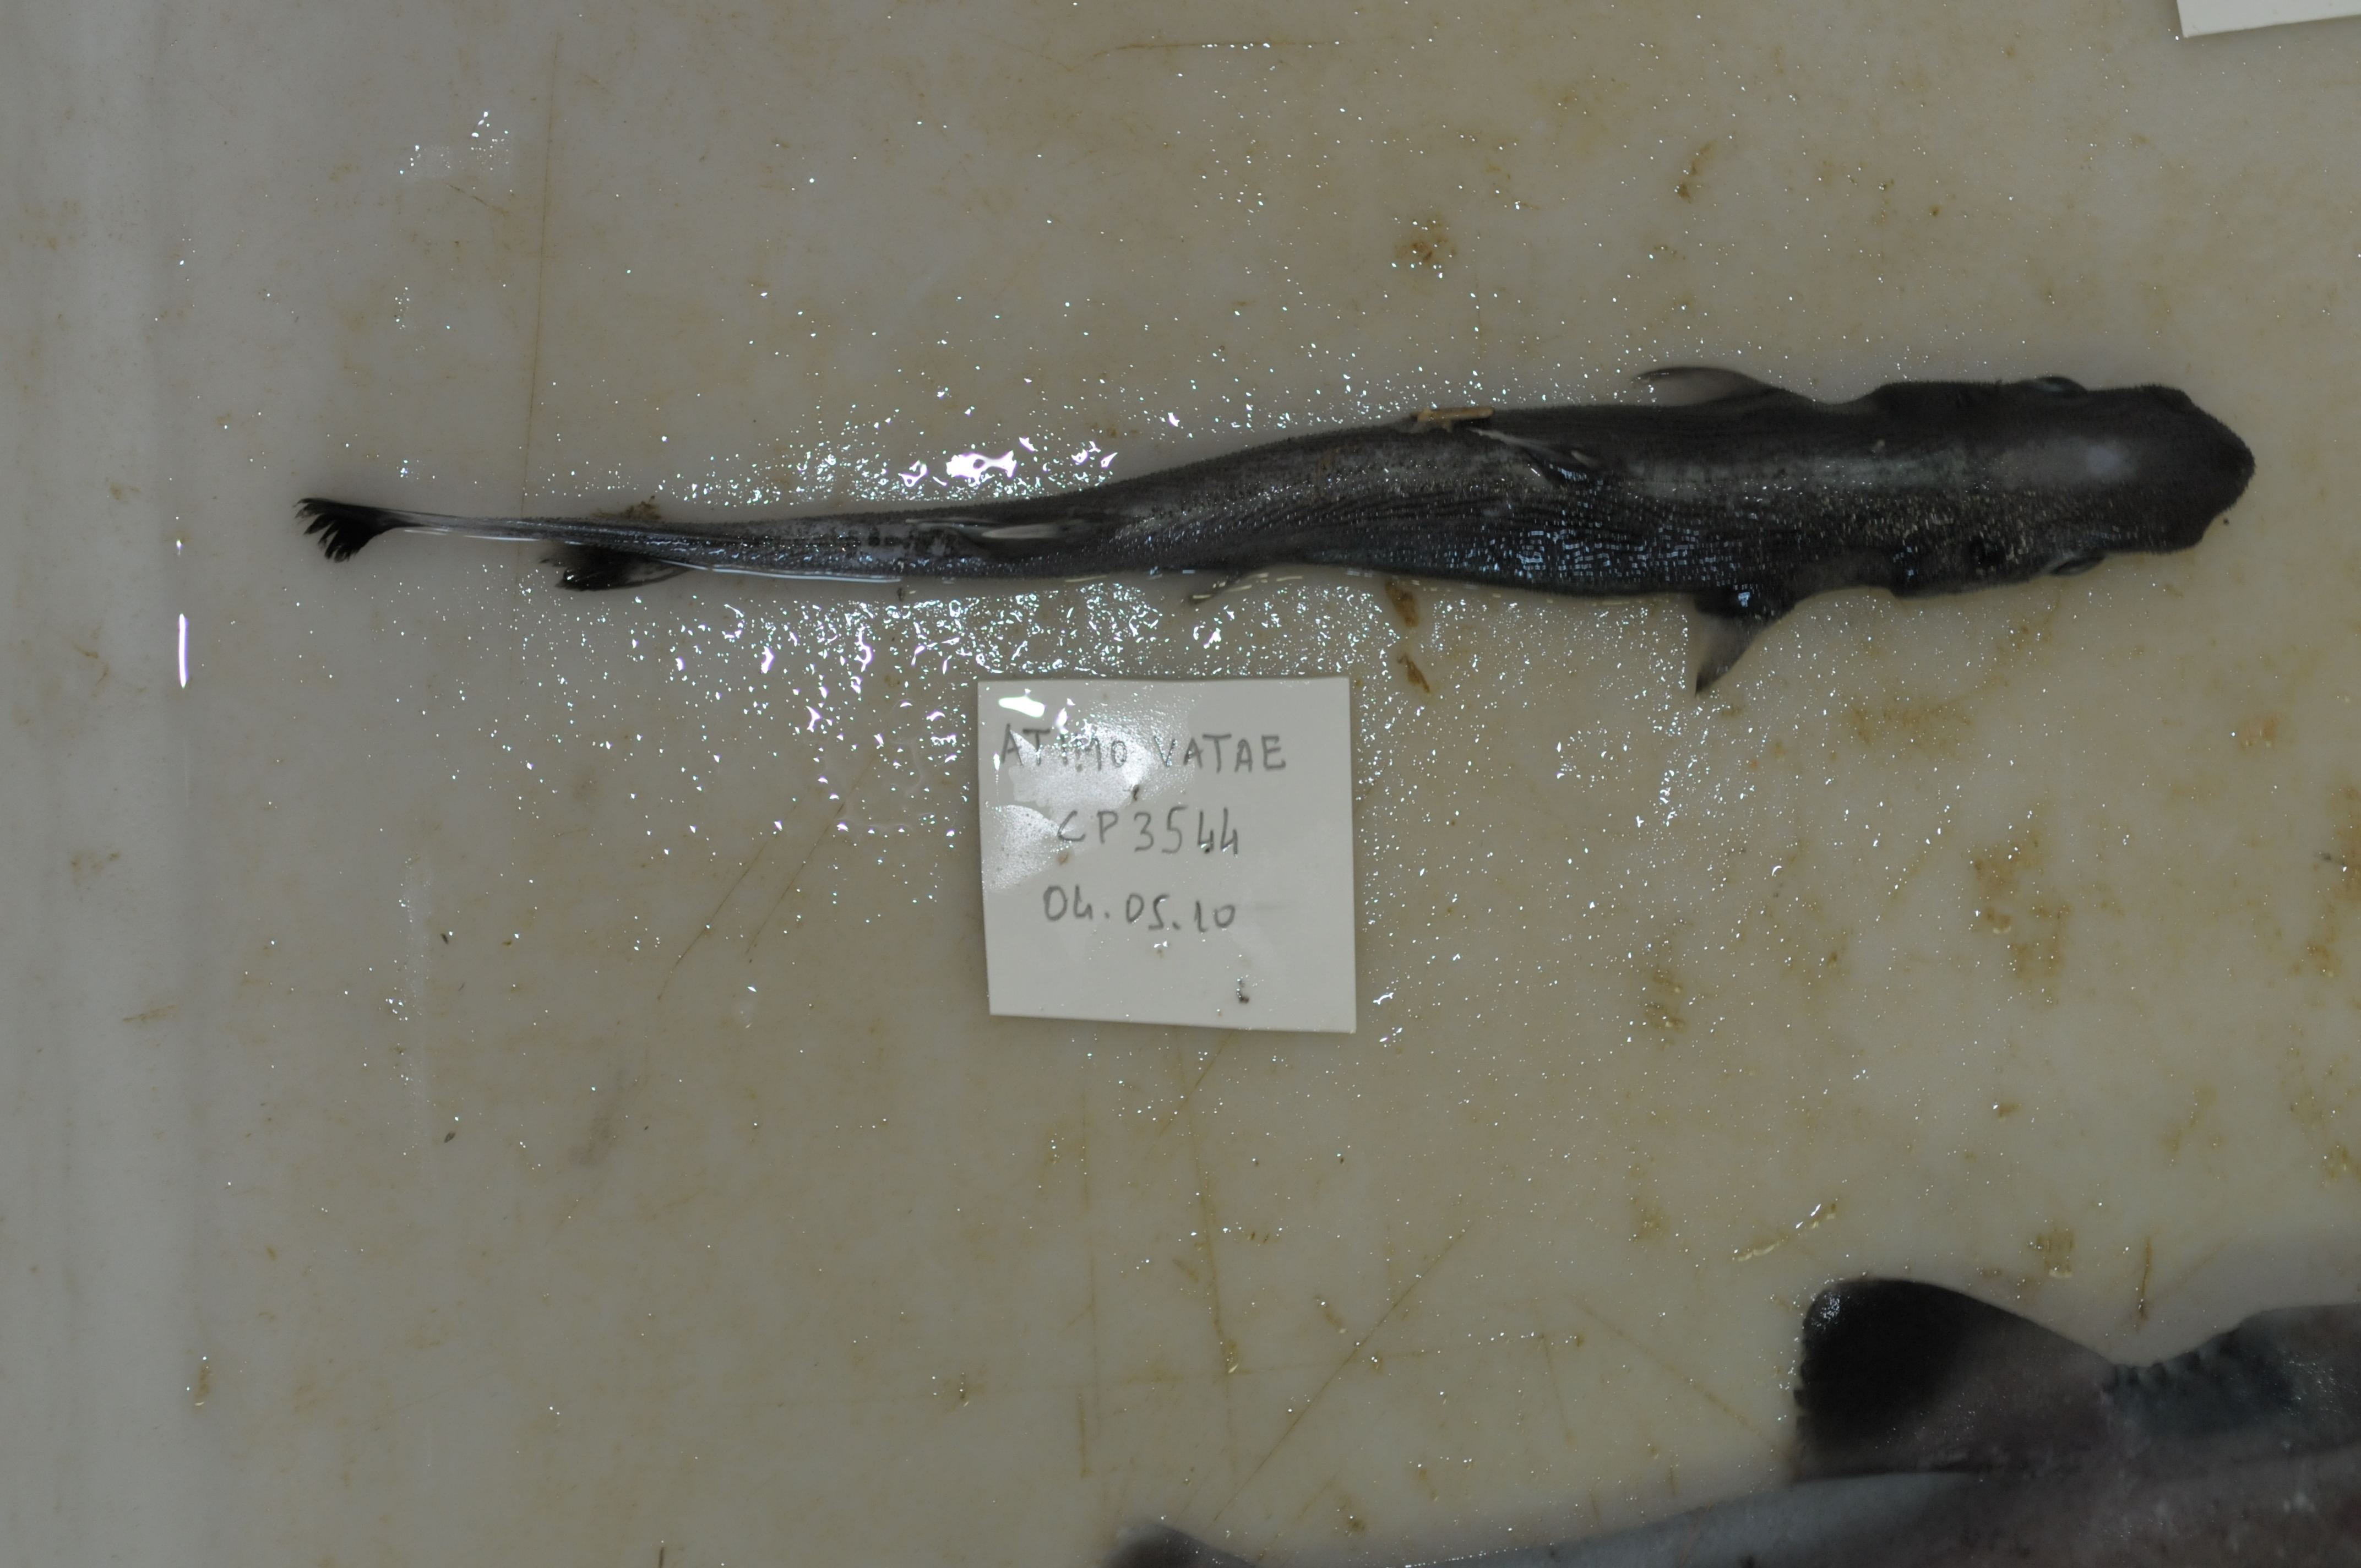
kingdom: Animalia
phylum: Chordata
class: Elasmobranchii
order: Squaliformes
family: Etmopteridae
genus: Etmopterus
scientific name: Etmopterus alphus
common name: Whitecheek lanternshark
